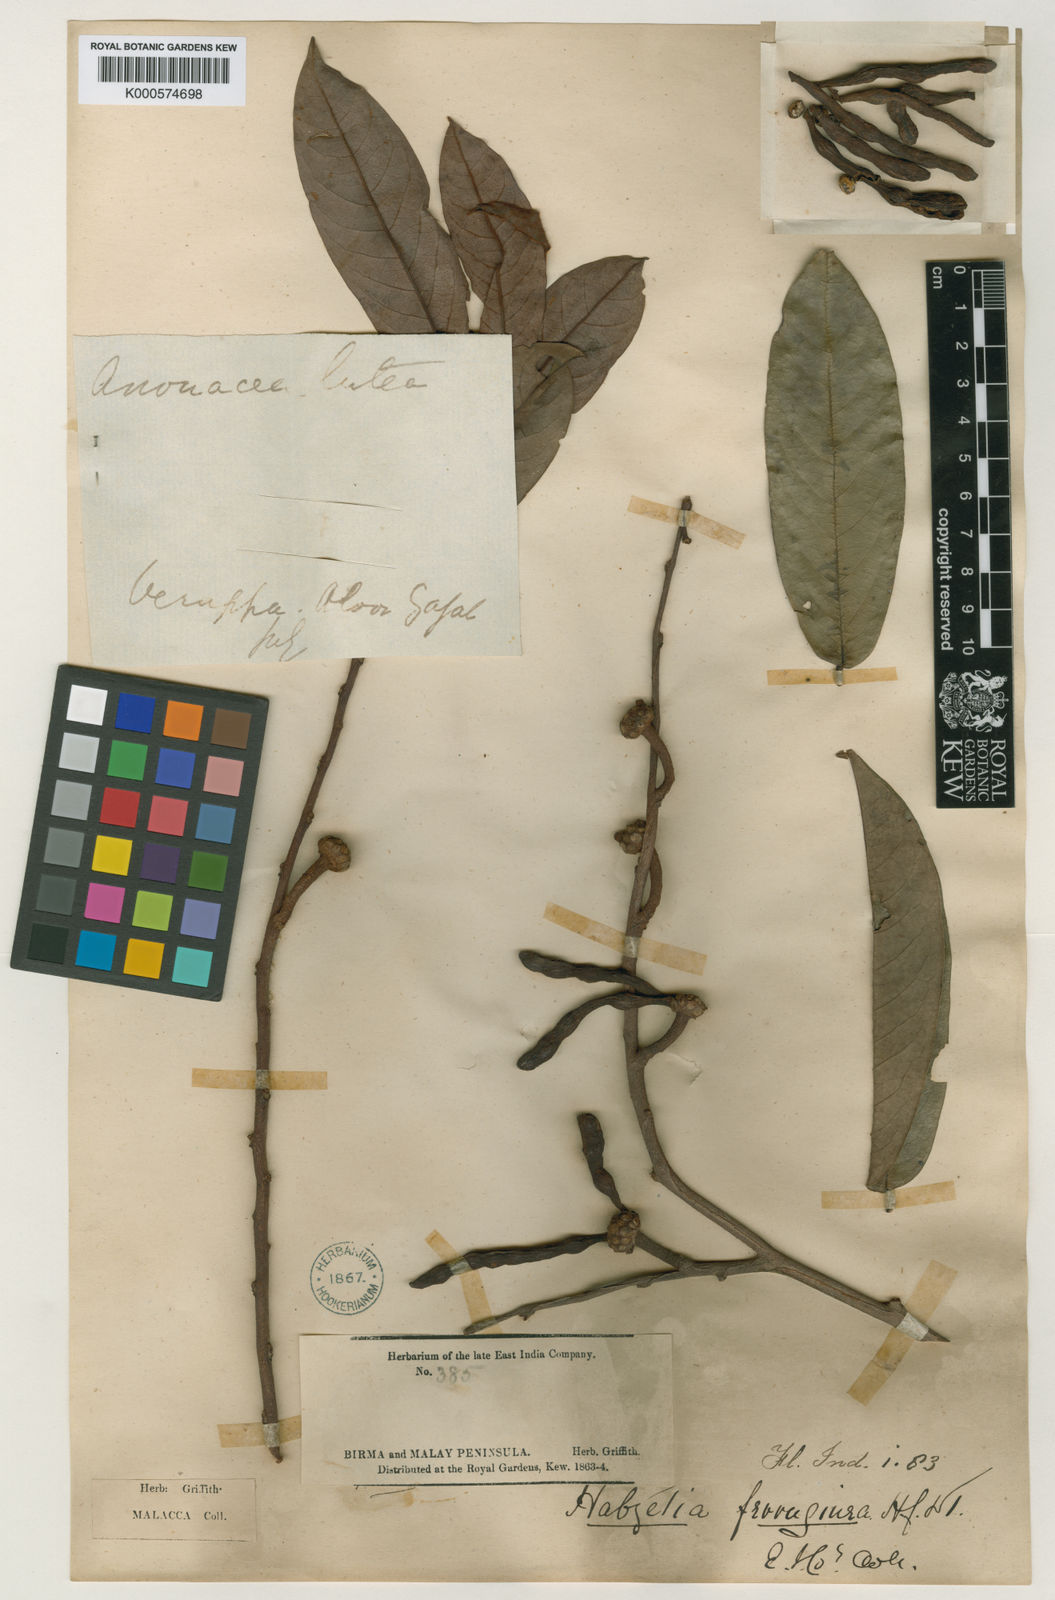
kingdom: Plantae
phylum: Tracheophyta
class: Magnoliopsida
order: Magnoliales
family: Annonaceae
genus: Xylopia
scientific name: Xylopia ferruginea
